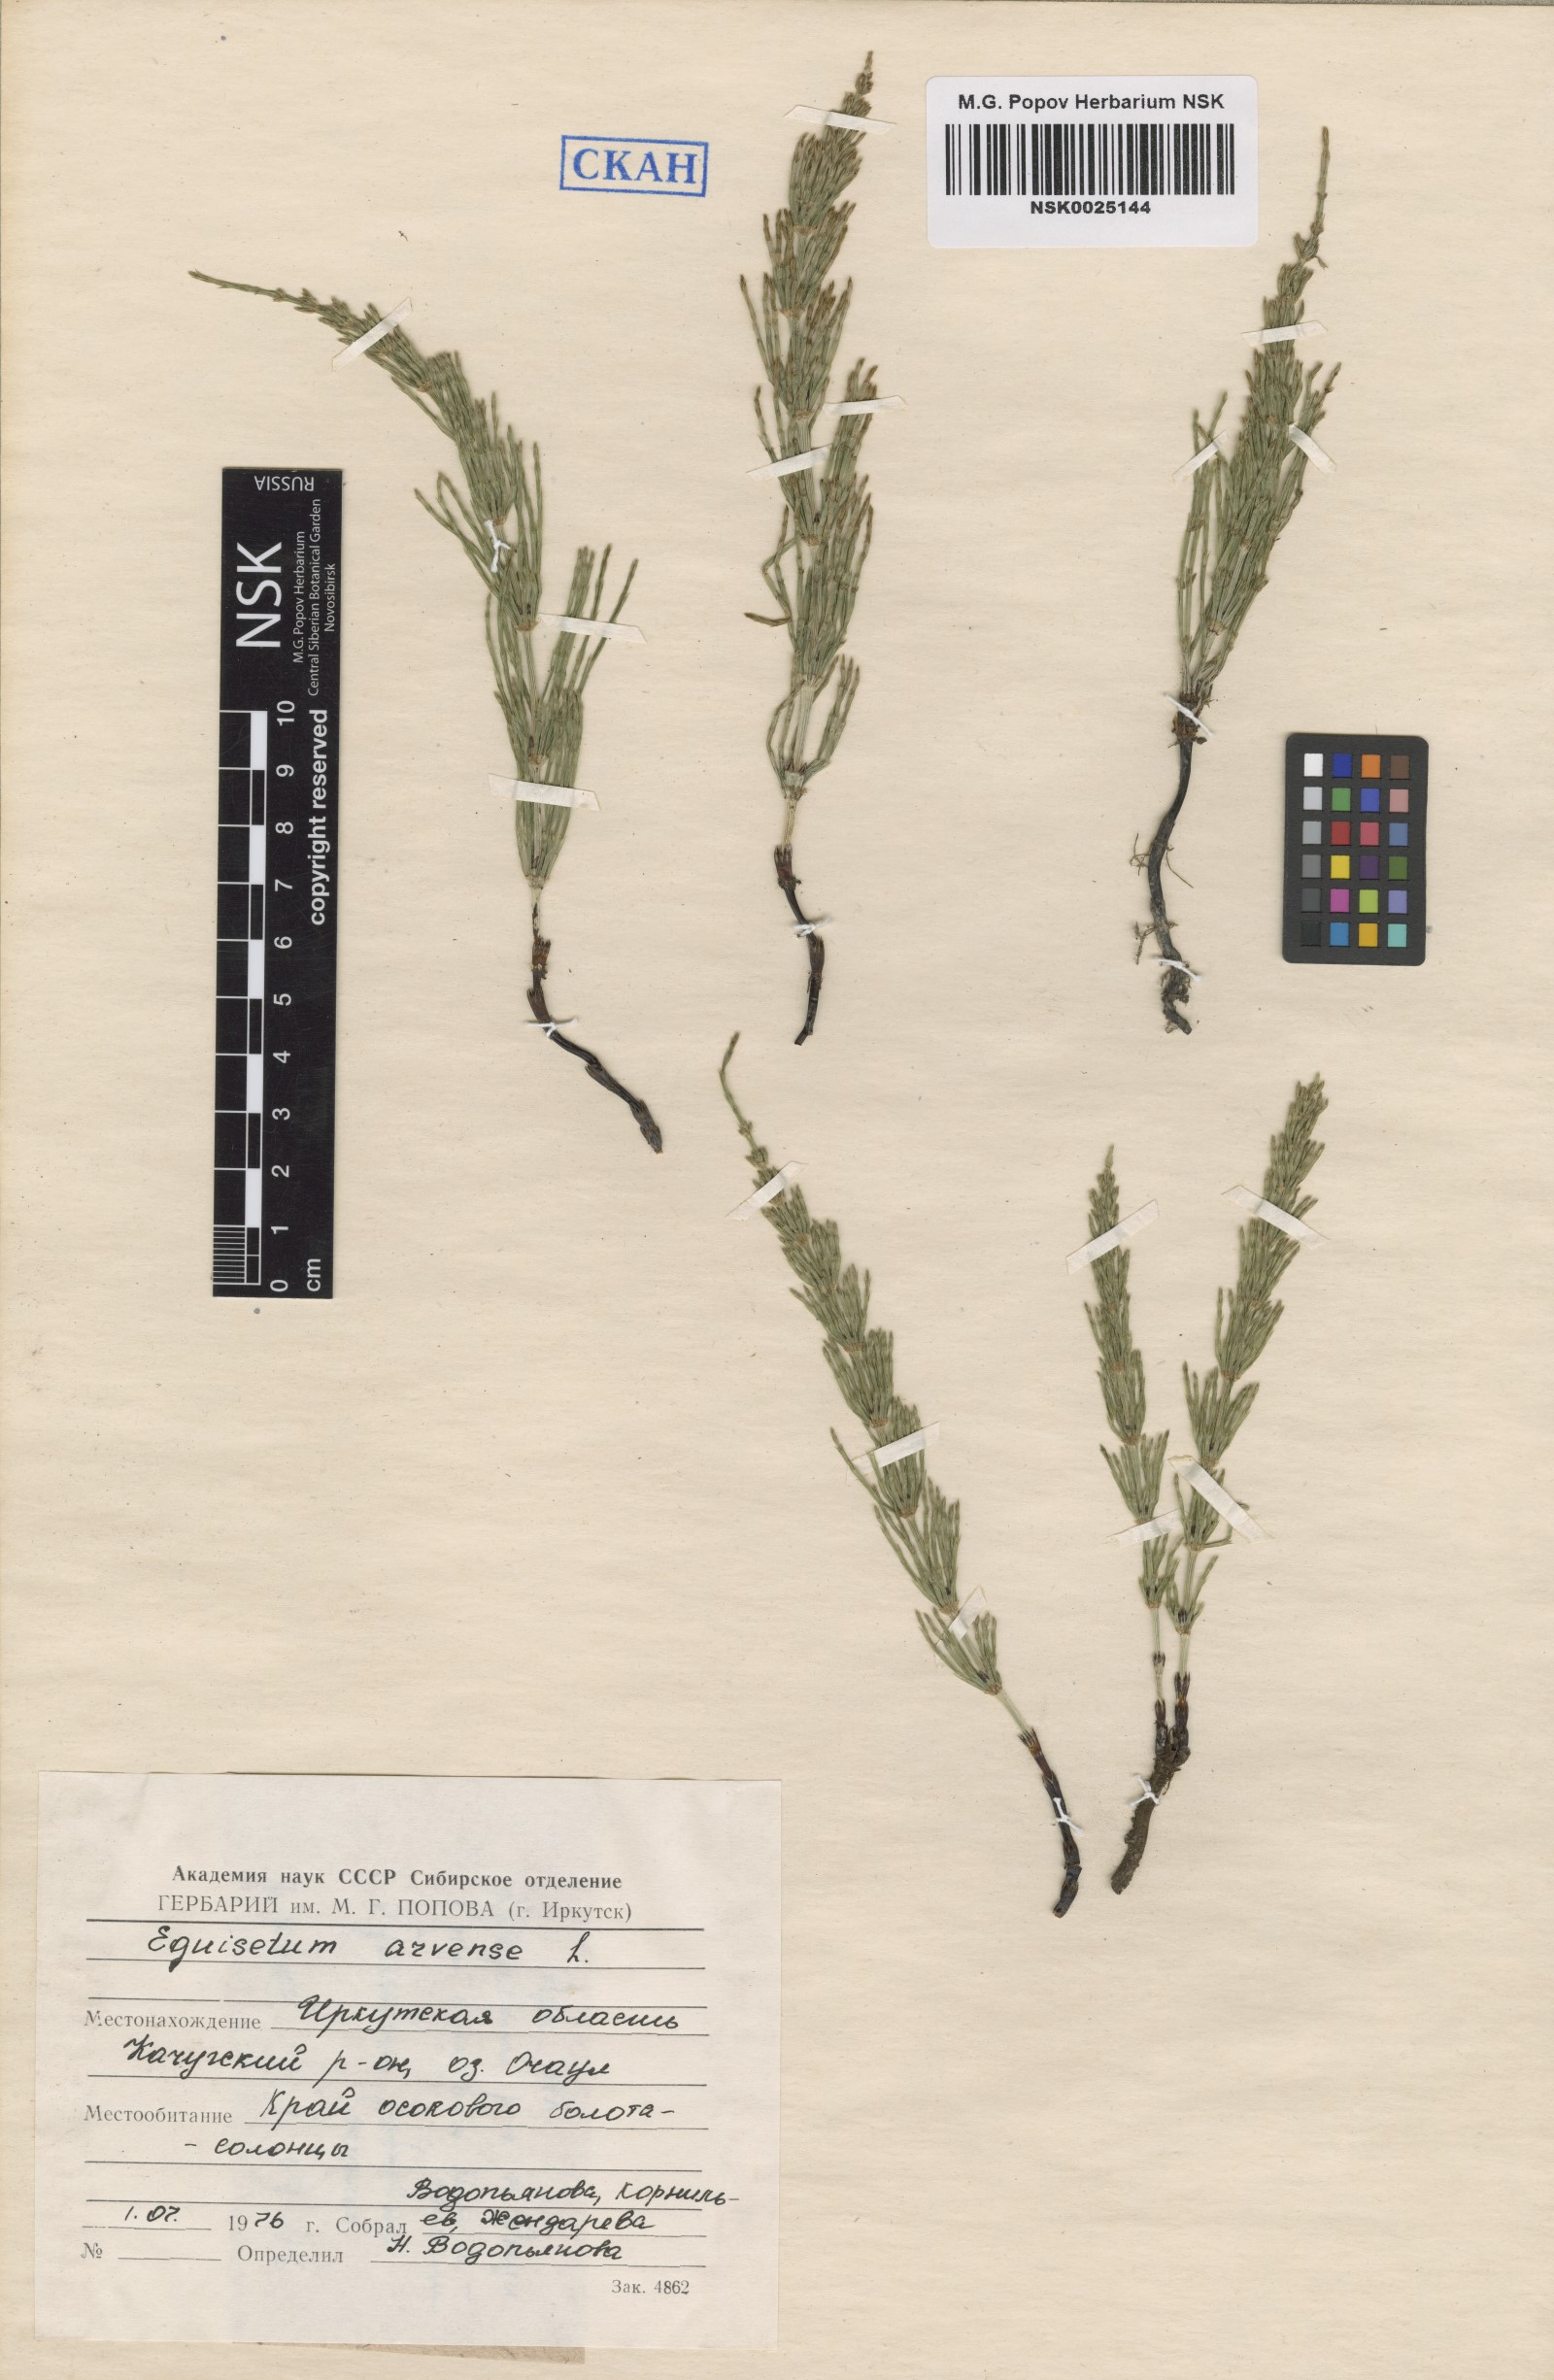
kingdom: Plantae
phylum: Tracheophyta
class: Polypodiopsida
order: Equisetales
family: Equisetaceae
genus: Equisetum
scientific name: Equisetum arvense
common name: Field horsetail
